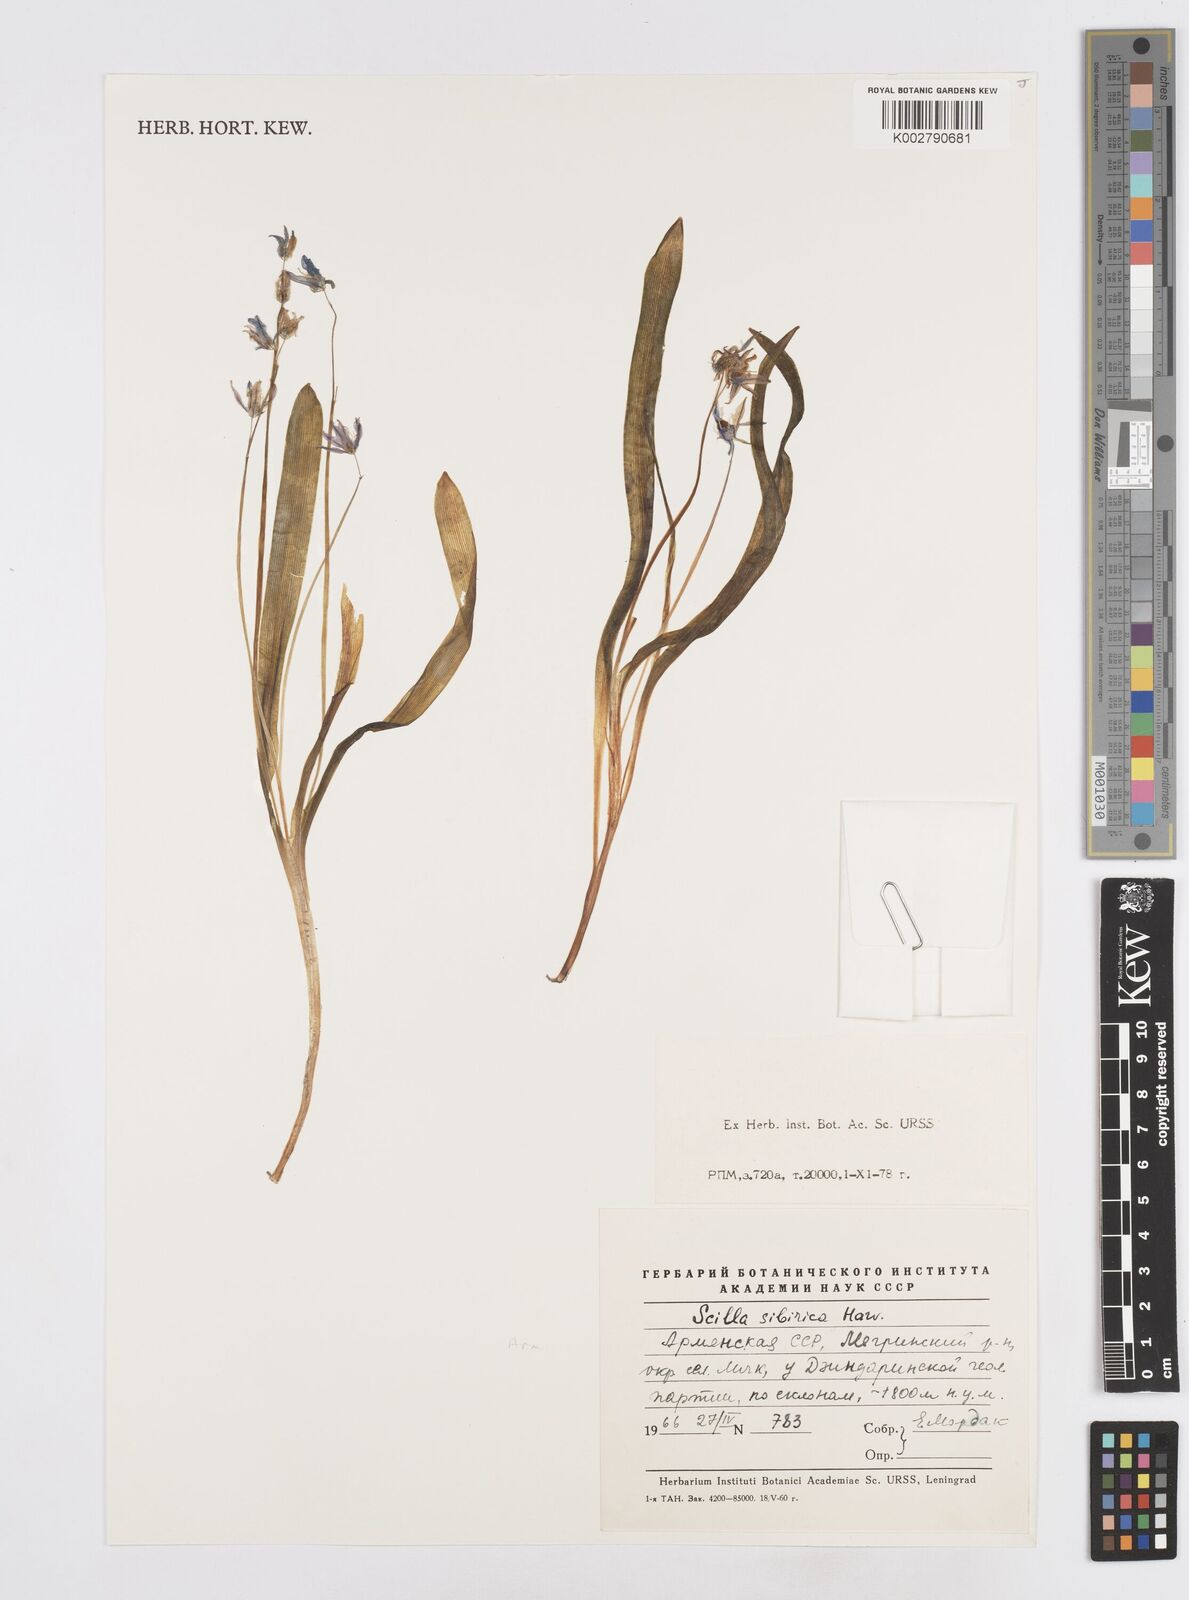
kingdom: Plantae
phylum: Tracheophyta
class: Liliopsida
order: Asparagales
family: Asparagaceae
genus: Scilla
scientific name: Scilla siberica
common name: Siberian squill
